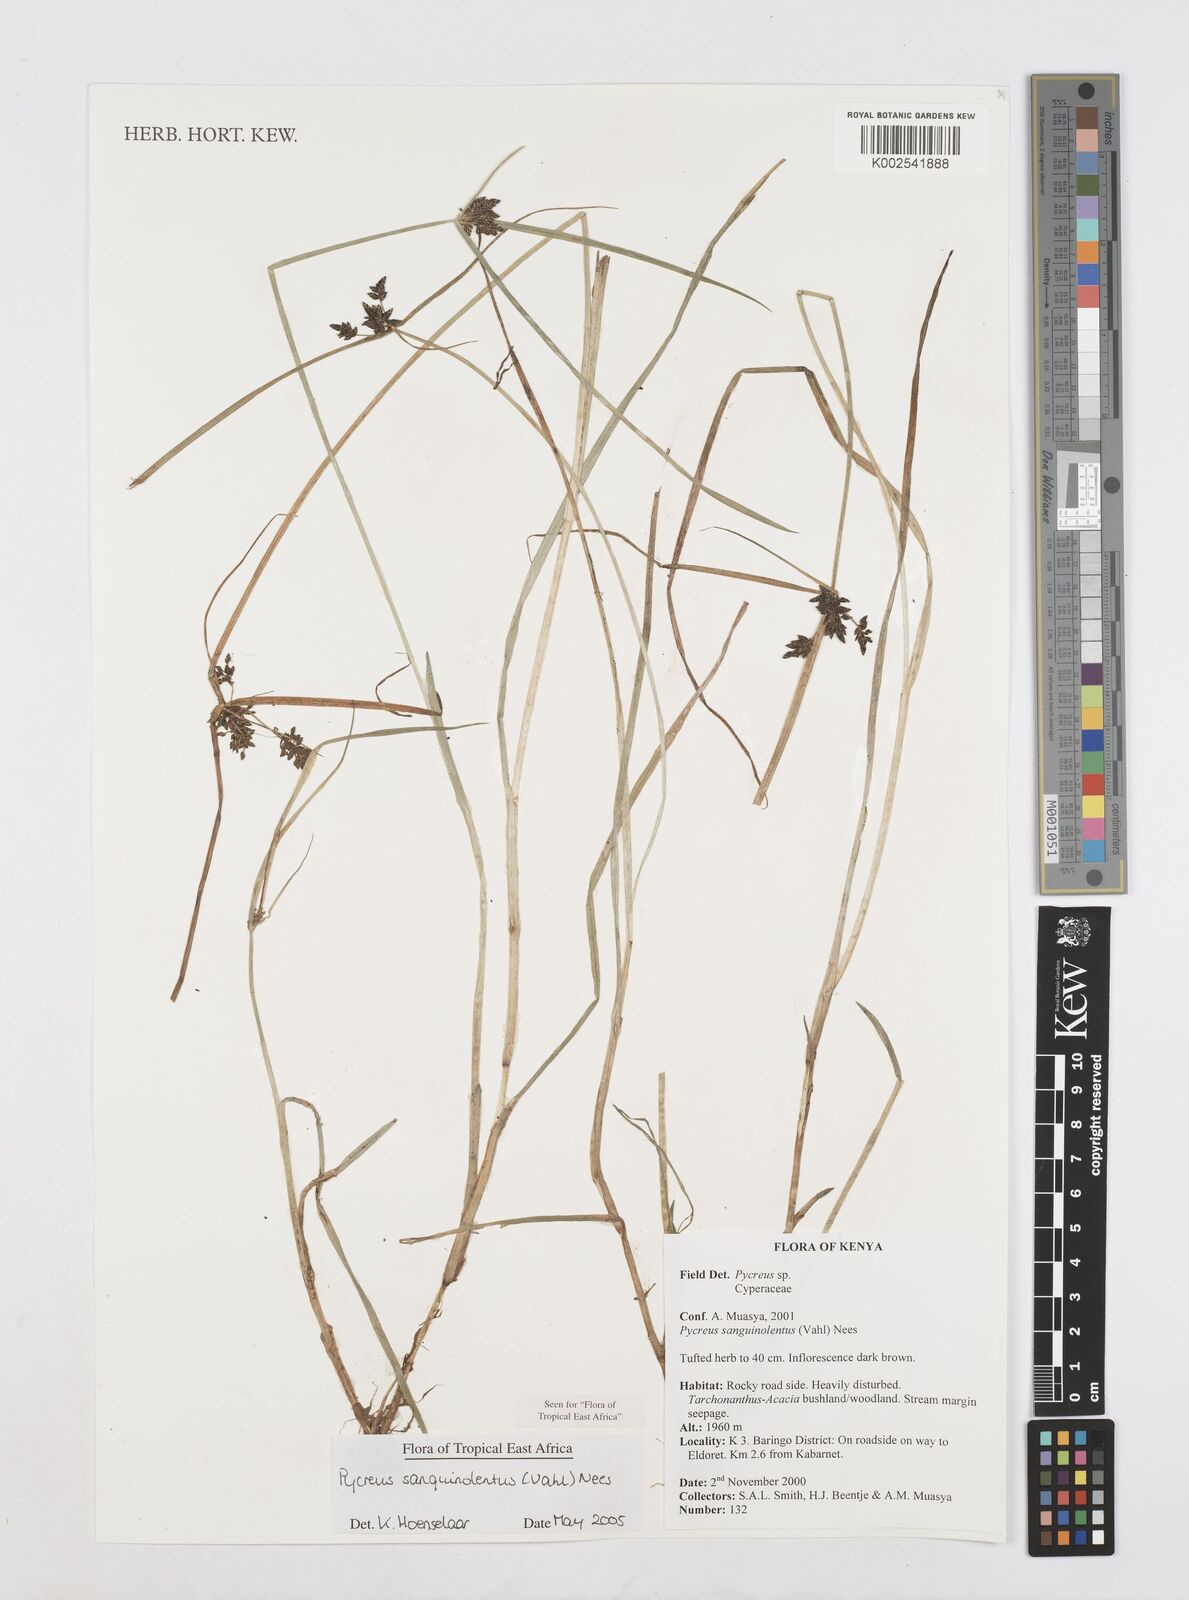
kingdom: Plantae
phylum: Tracheophyta
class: Liliopsida
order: Poales
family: Cyperaceae
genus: Cyperus
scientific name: Cyperus sanguinolentus
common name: Purpleglume flatsedge
